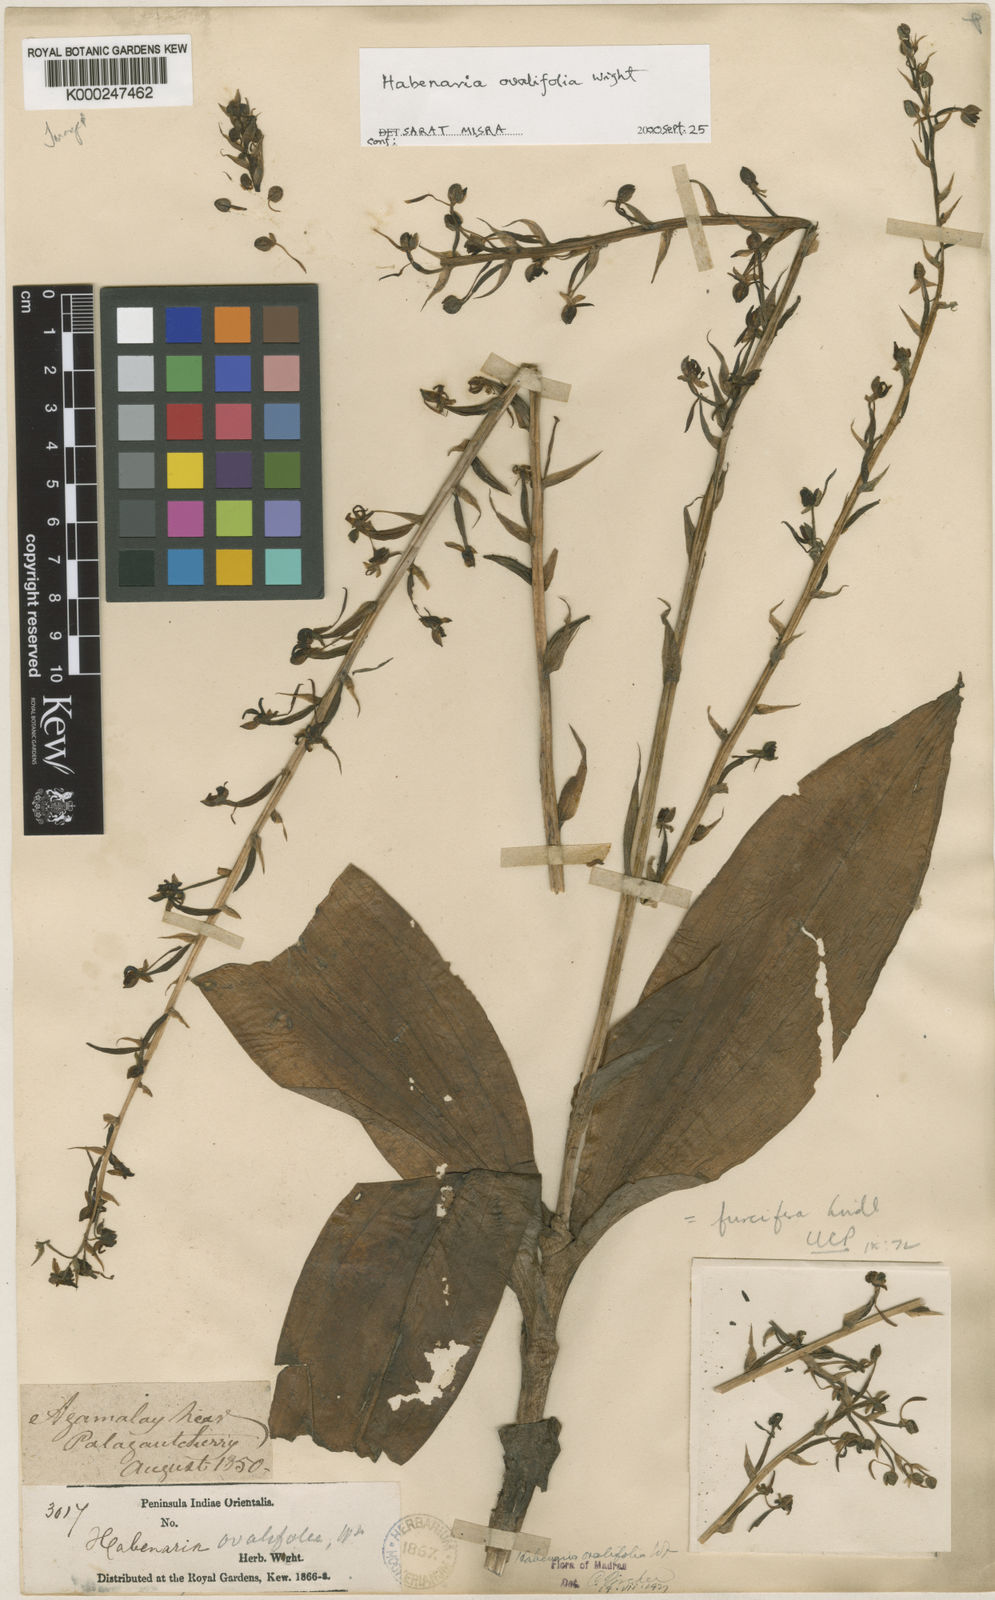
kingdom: Plantae
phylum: Tracheophyta
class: Liliopsida
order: Asparagales
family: Orchidaceae
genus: Habenaria
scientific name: Habenaria furcifera
